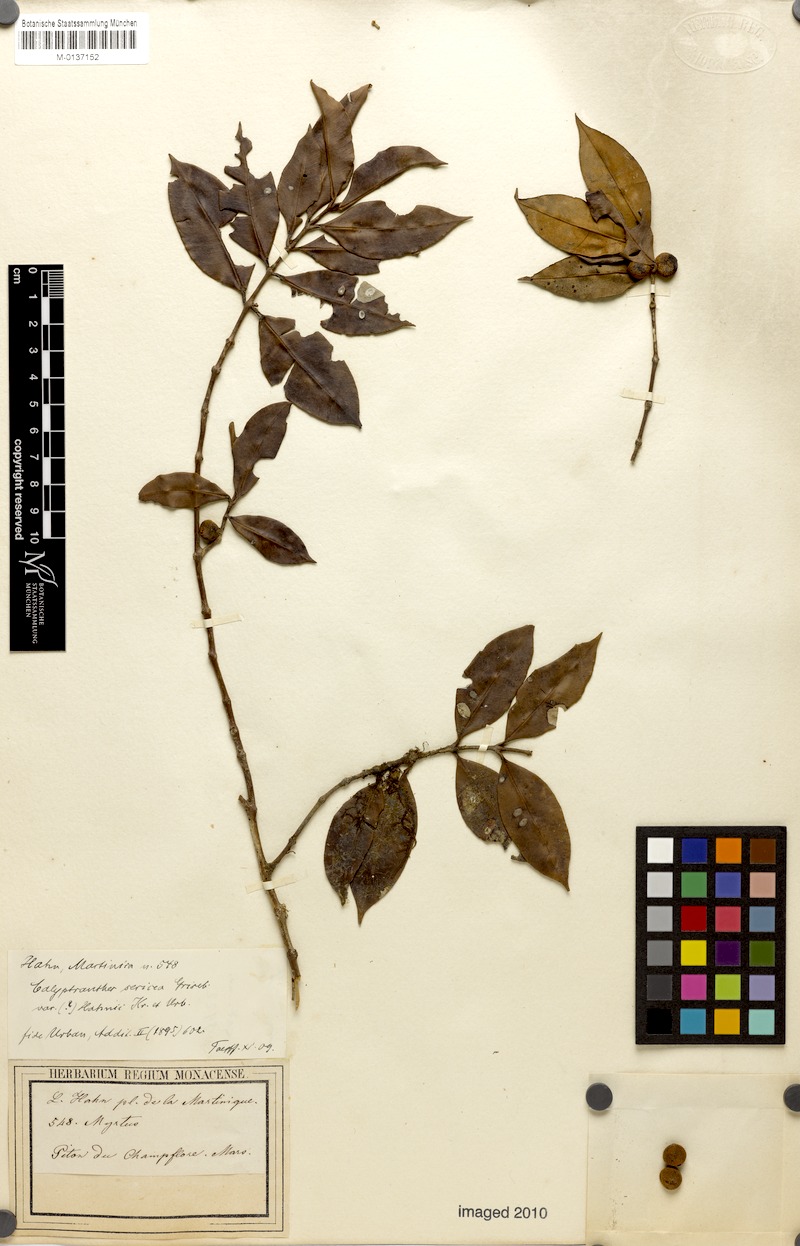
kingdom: Plantae
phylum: Tracheophyta
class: Magnoliopsida
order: Myrtales
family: Myrtaceae
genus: Myrcia
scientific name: Myrcia fasciculata
